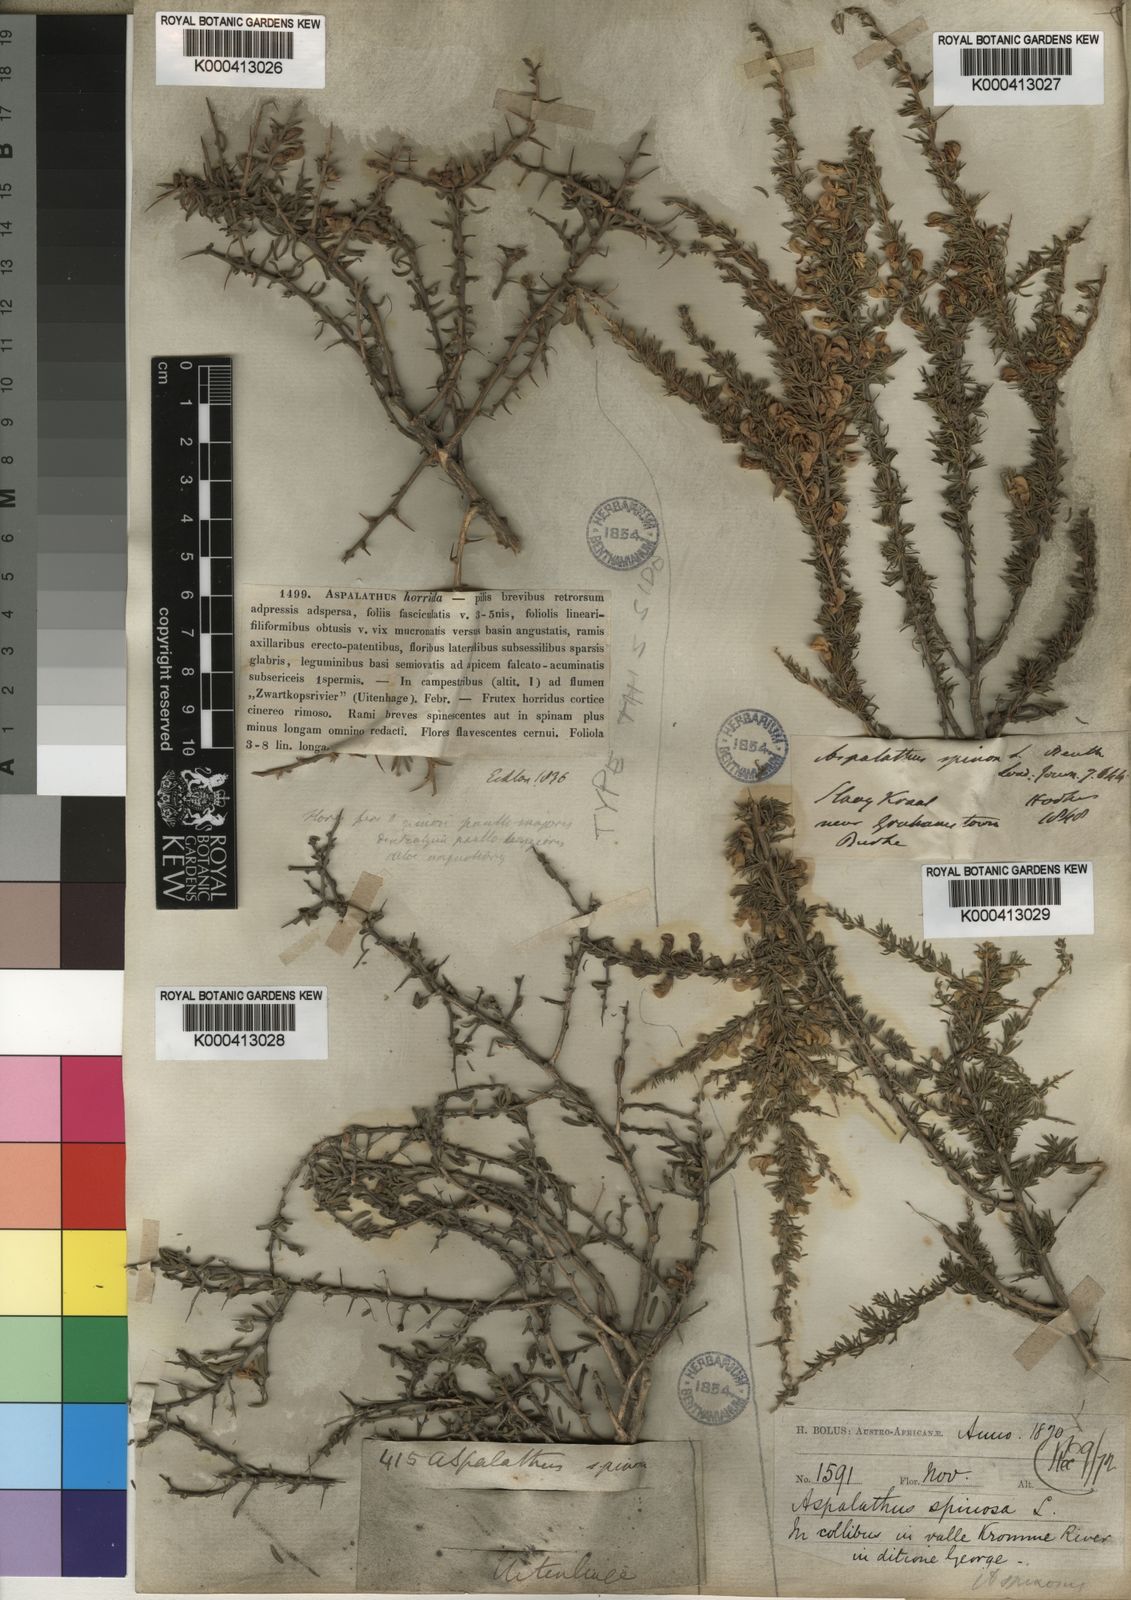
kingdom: Plantae
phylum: Tracheophyta
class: Magnoliopsida
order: Fabales
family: Fabaceae
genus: Aspalathus
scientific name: Aspalathus spinosa
